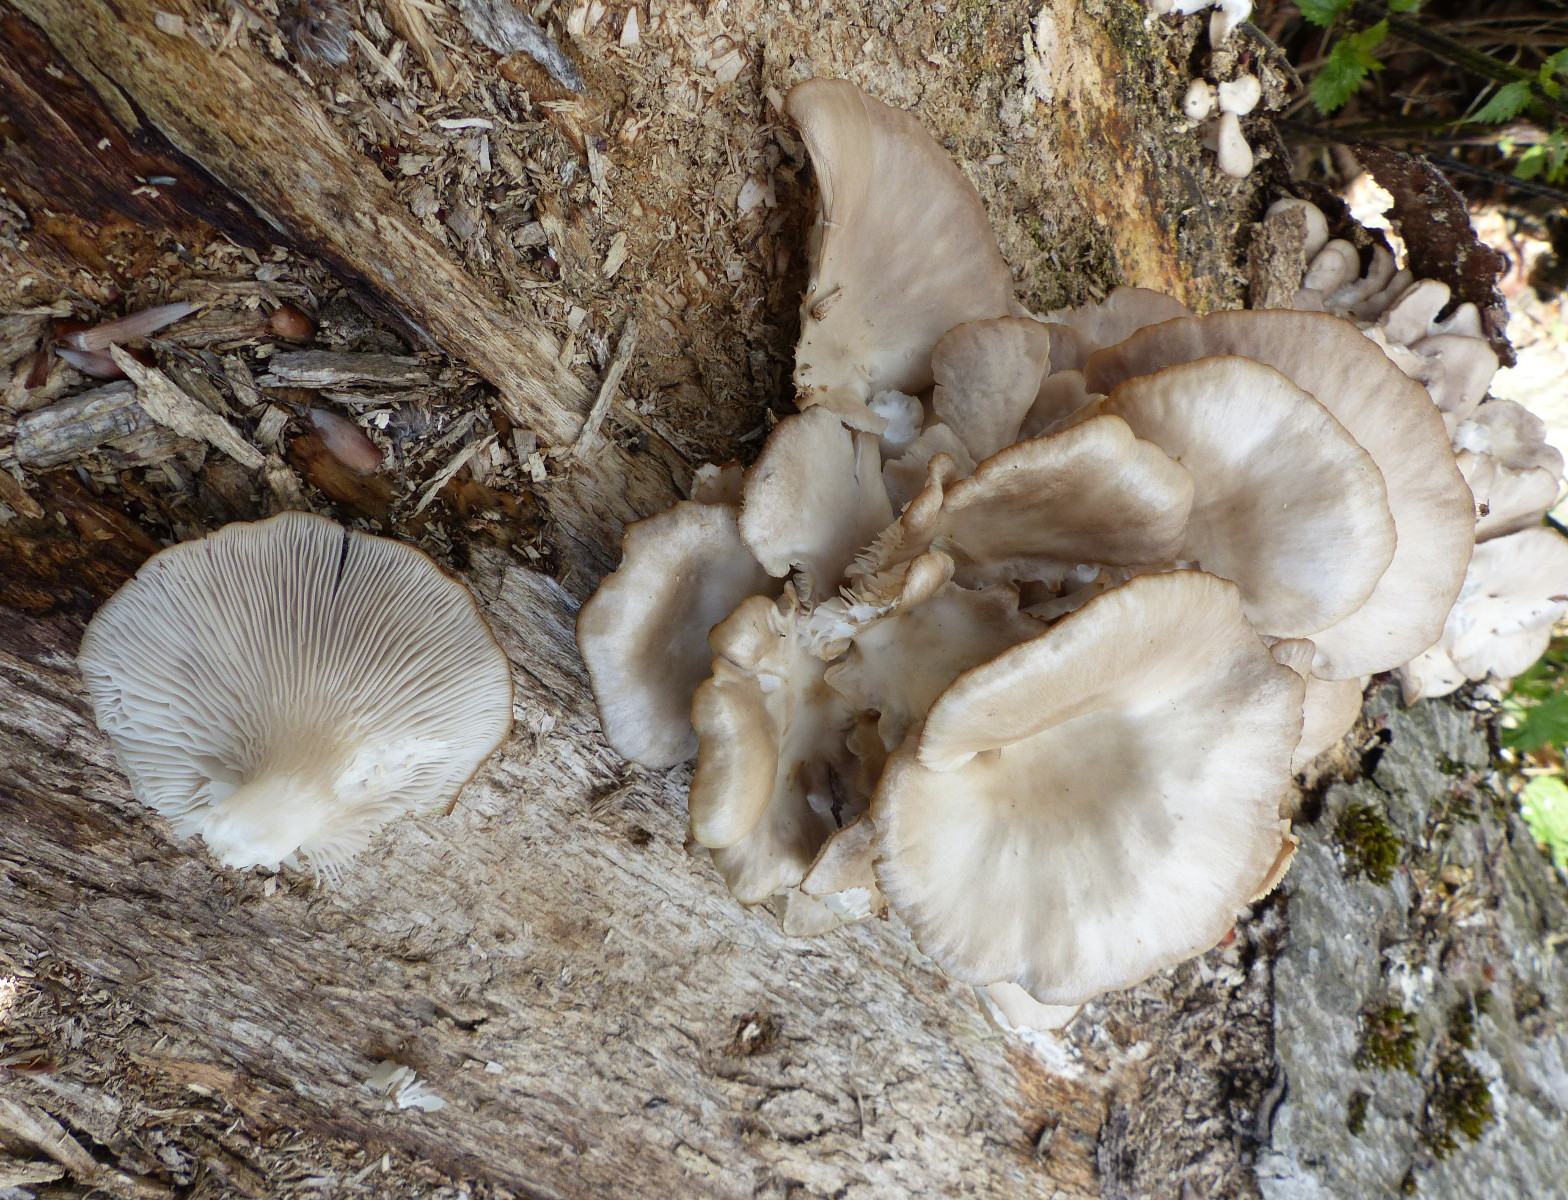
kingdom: Fungi
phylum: Basidiomycota
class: Agaricomycetes
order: Agaricales
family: Pleurotaceae
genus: Pleurotus
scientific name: Pleurotus pulmonarius
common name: sommer-østershat
